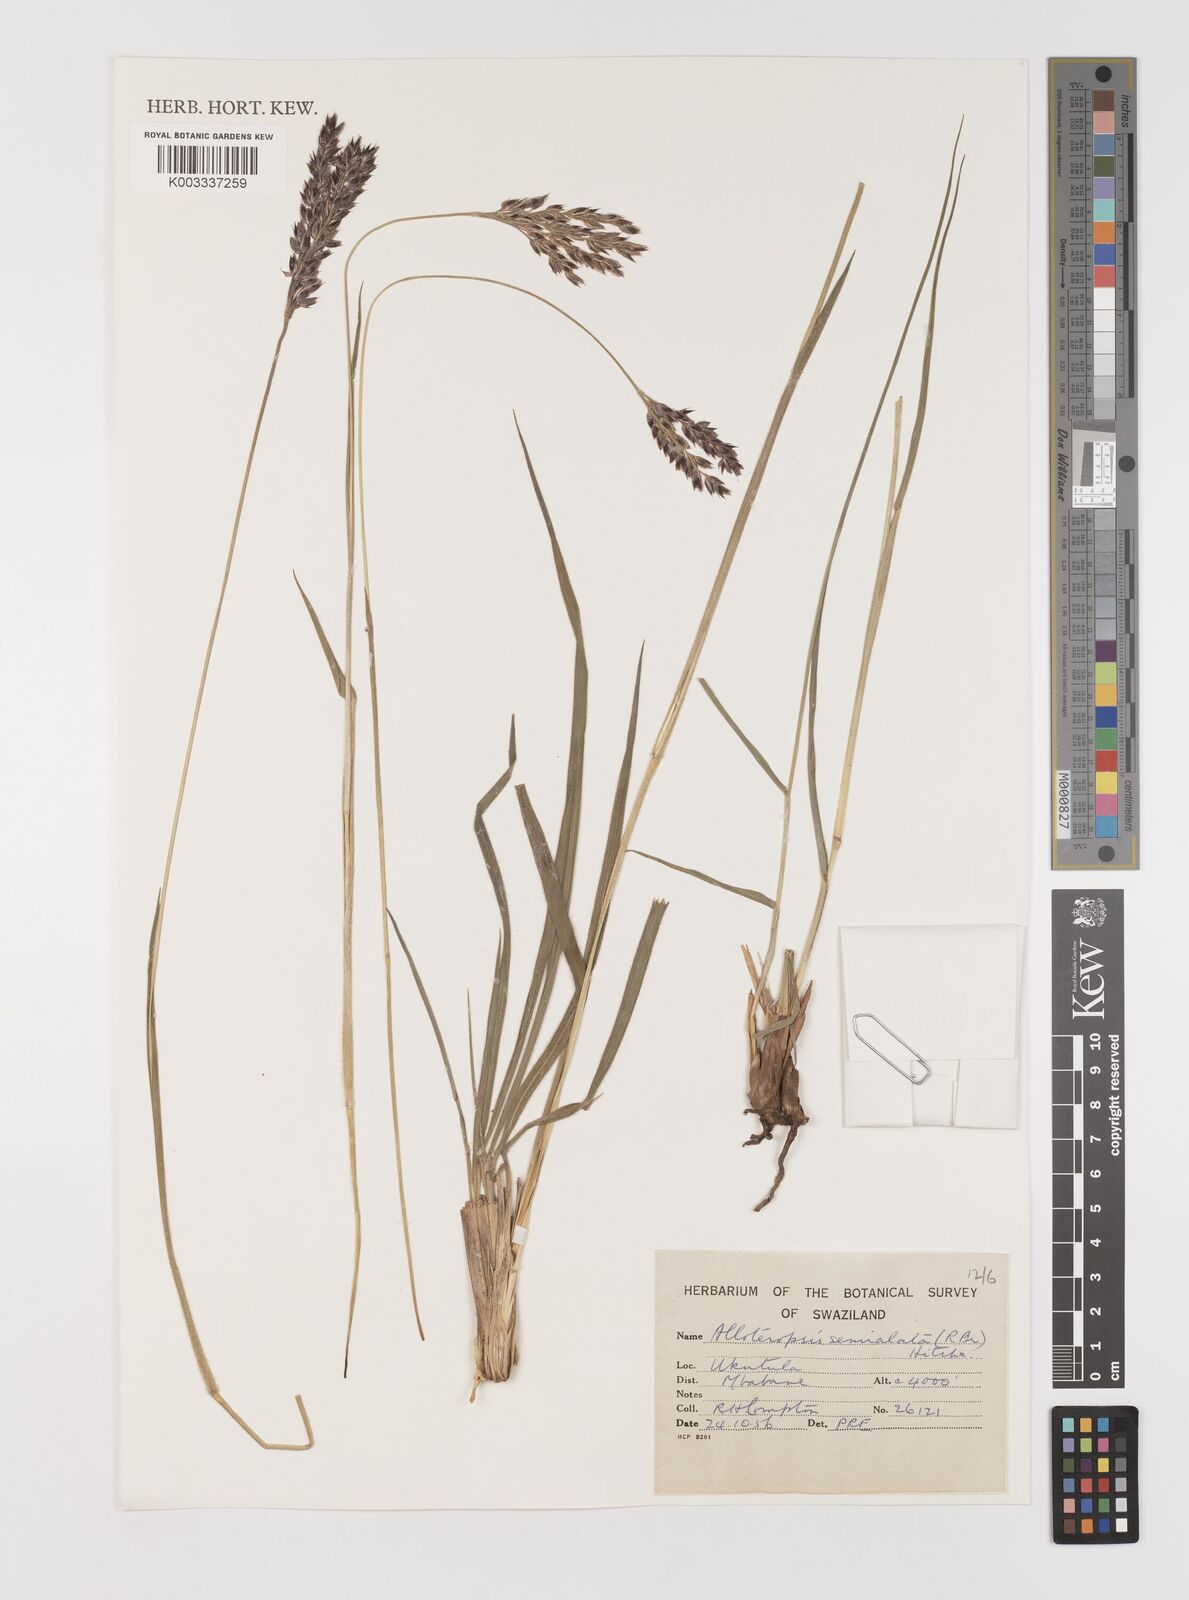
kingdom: Plantae
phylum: Tracheophyta
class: Liliopsida
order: Poales
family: Poaceae
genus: Alloteropsis
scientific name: Alloteropsis semialata
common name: Cockatoo grass
